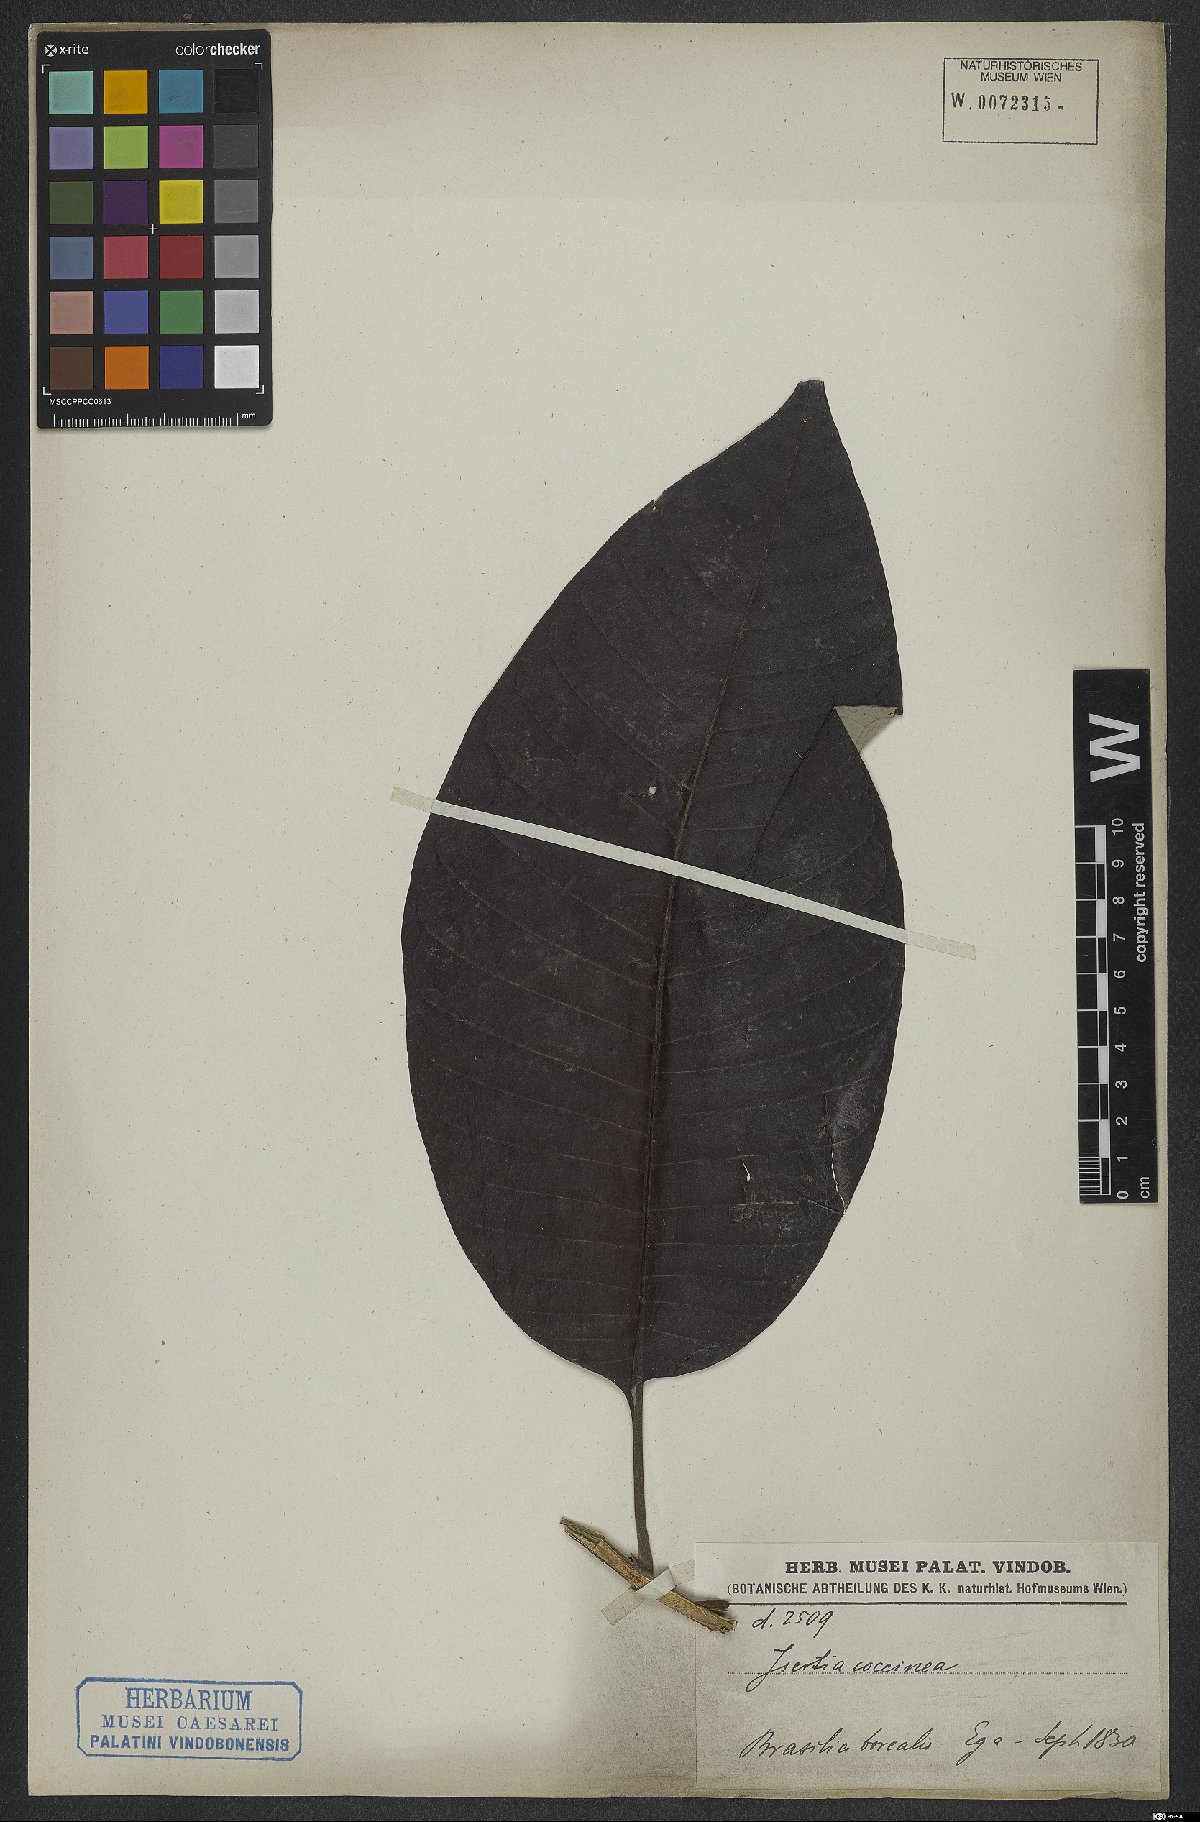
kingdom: Plantae
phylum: Tracheophyta
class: Magnoliopsida
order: Gentianales
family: Rubiaceae
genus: Isertia
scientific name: Isertia coccinea
